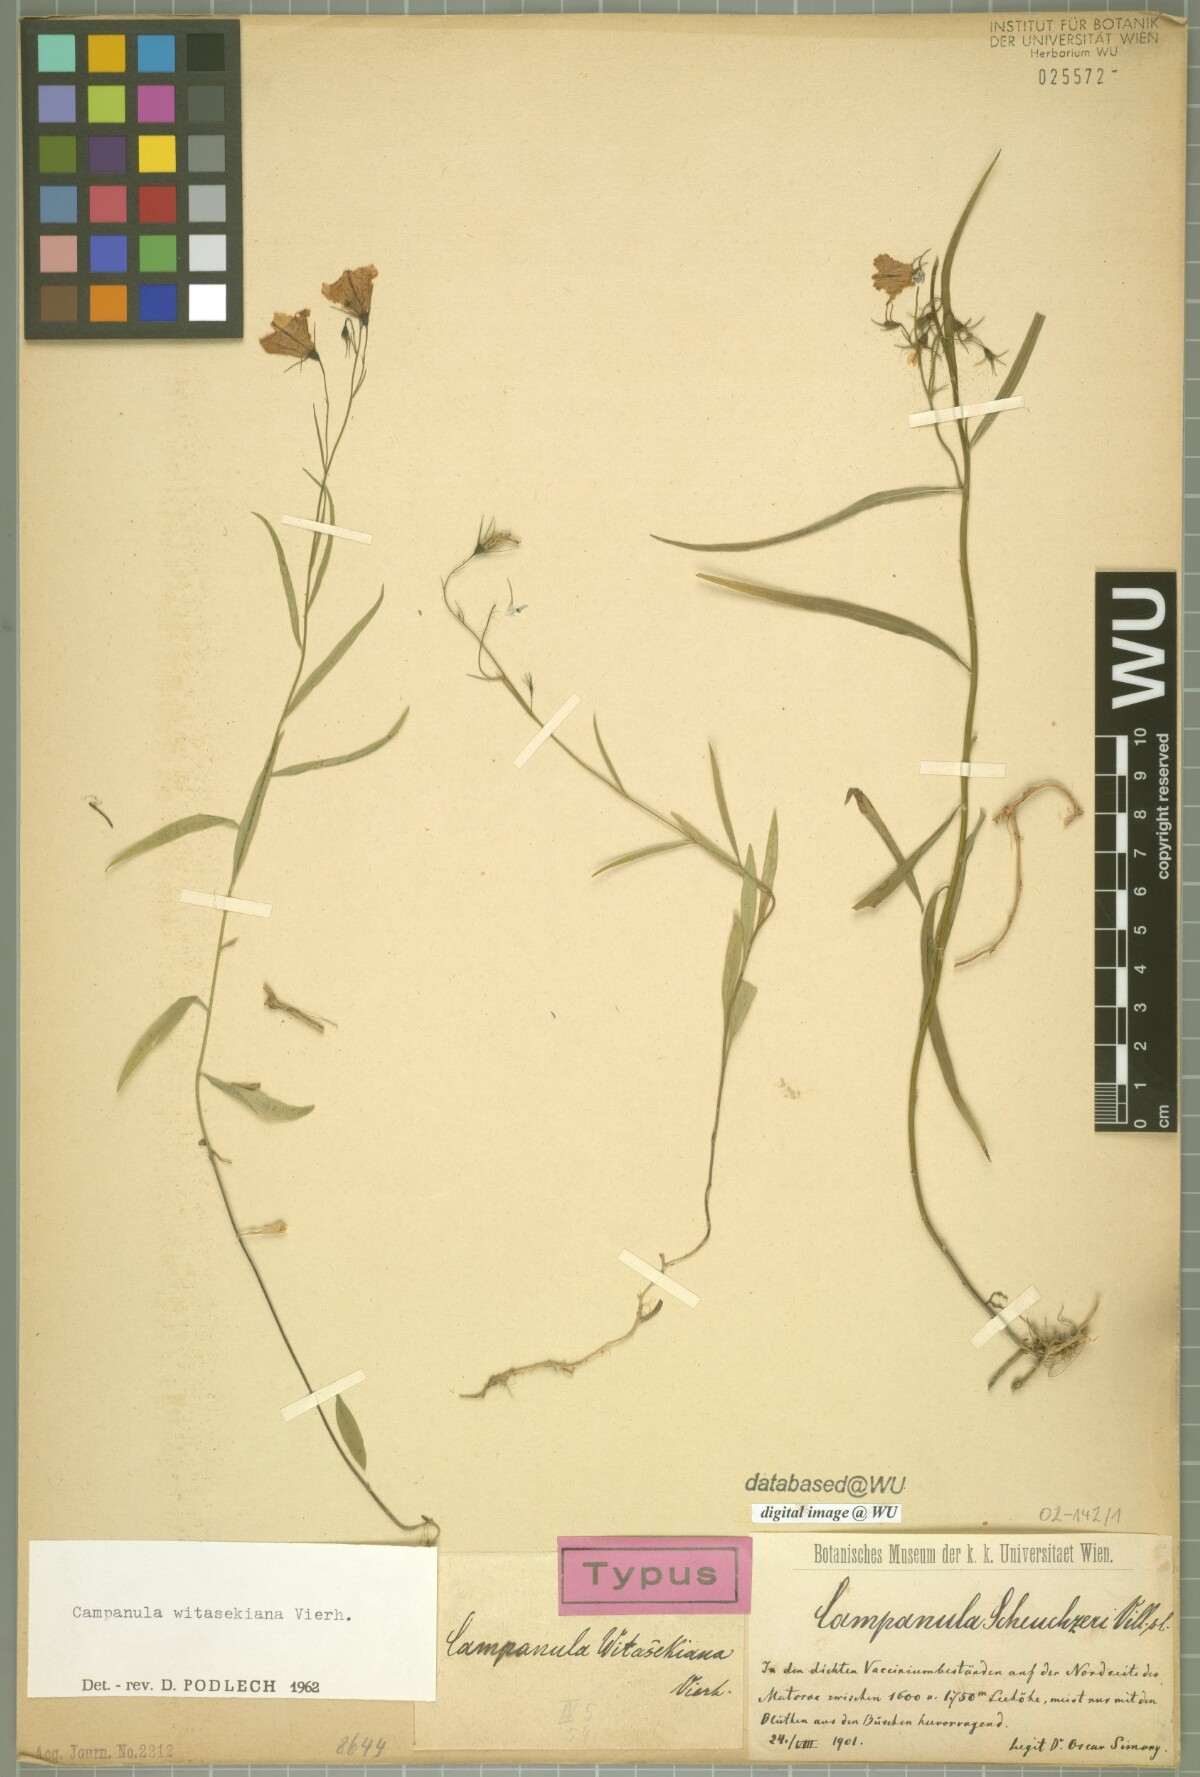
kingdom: Plantae
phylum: Tracheophyta
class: Magnoliopsida
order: Asterales
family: Campanulaceae
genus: Campanula
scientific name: Campanula witasekiana
